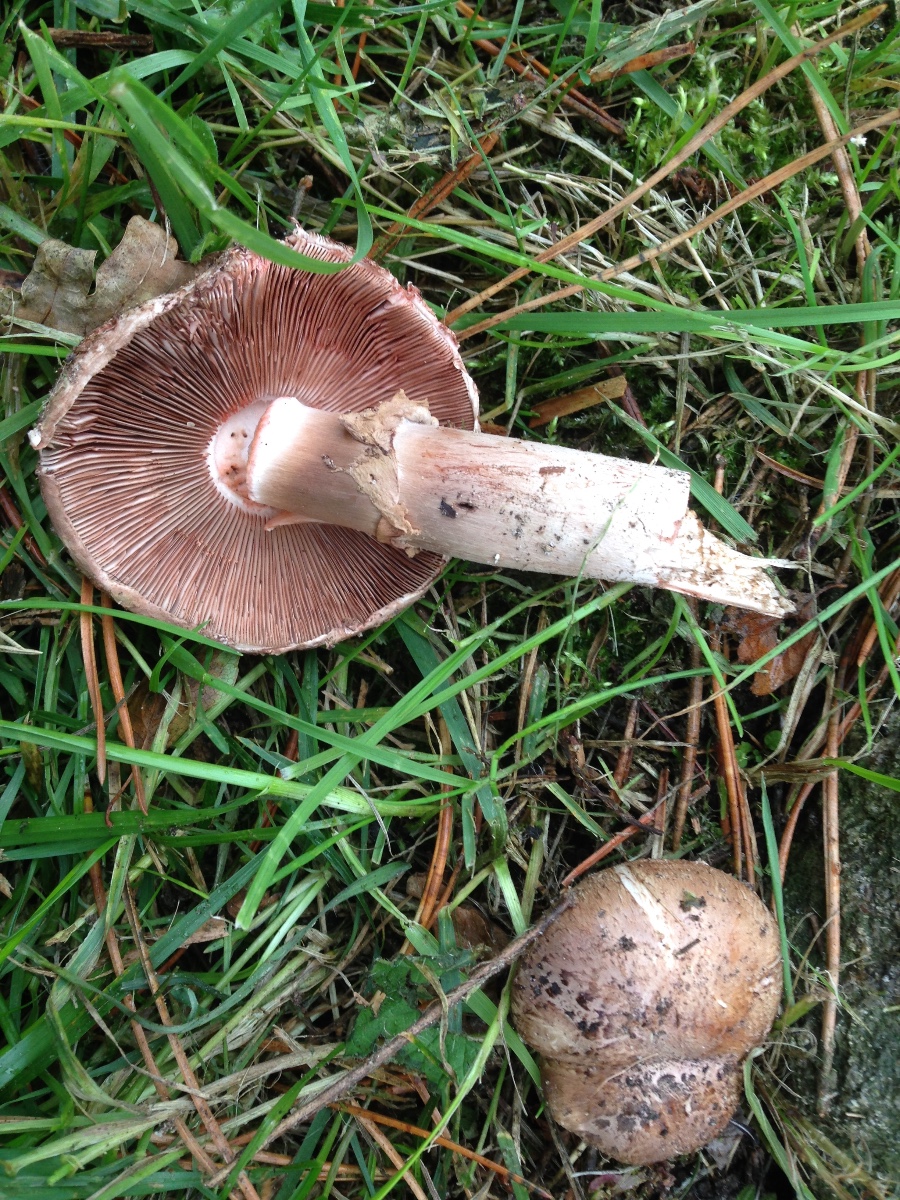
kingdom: Fungi
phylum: Basidiomycota
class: Agaricomycetes
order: Agaricales
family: Agaricaceae
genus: Agaricus
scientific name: Agaricus
